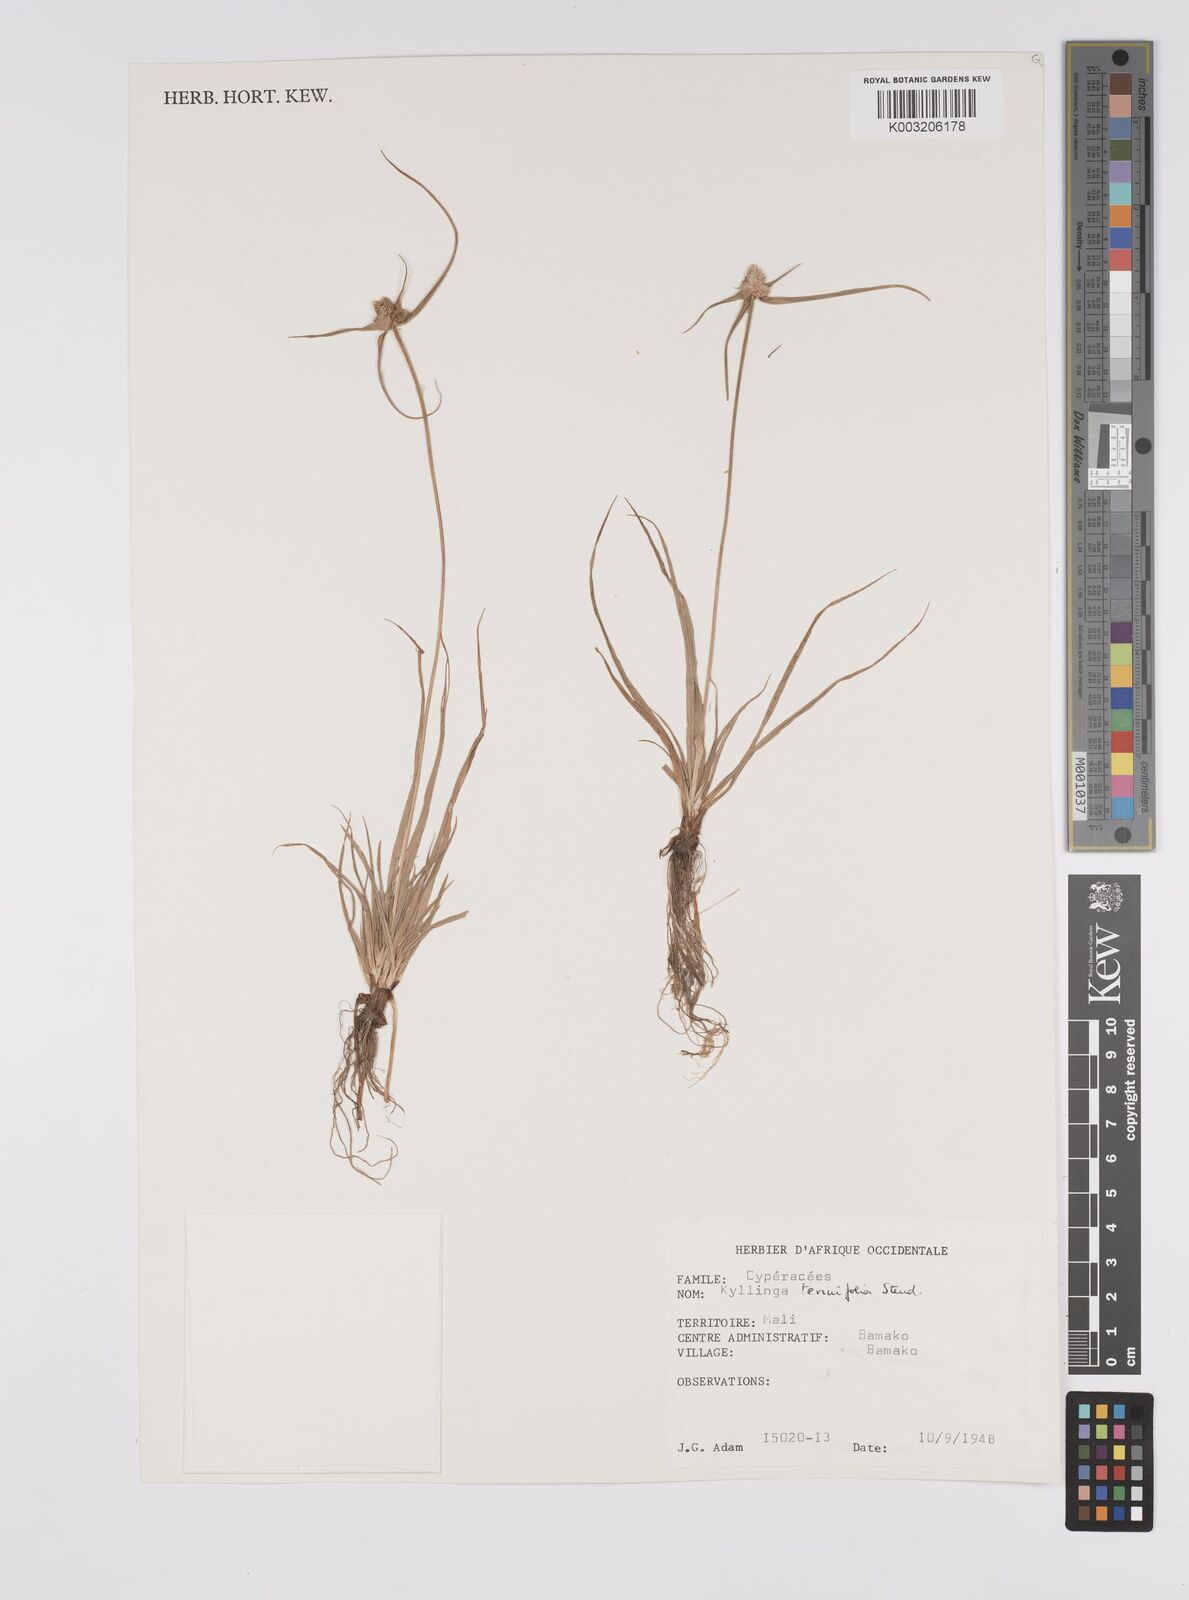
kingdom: Plantae
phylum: Tracheophyta
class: Liliopsida
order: Poales
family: Cyperaceae
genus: Cyperus
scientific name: Cyperus
